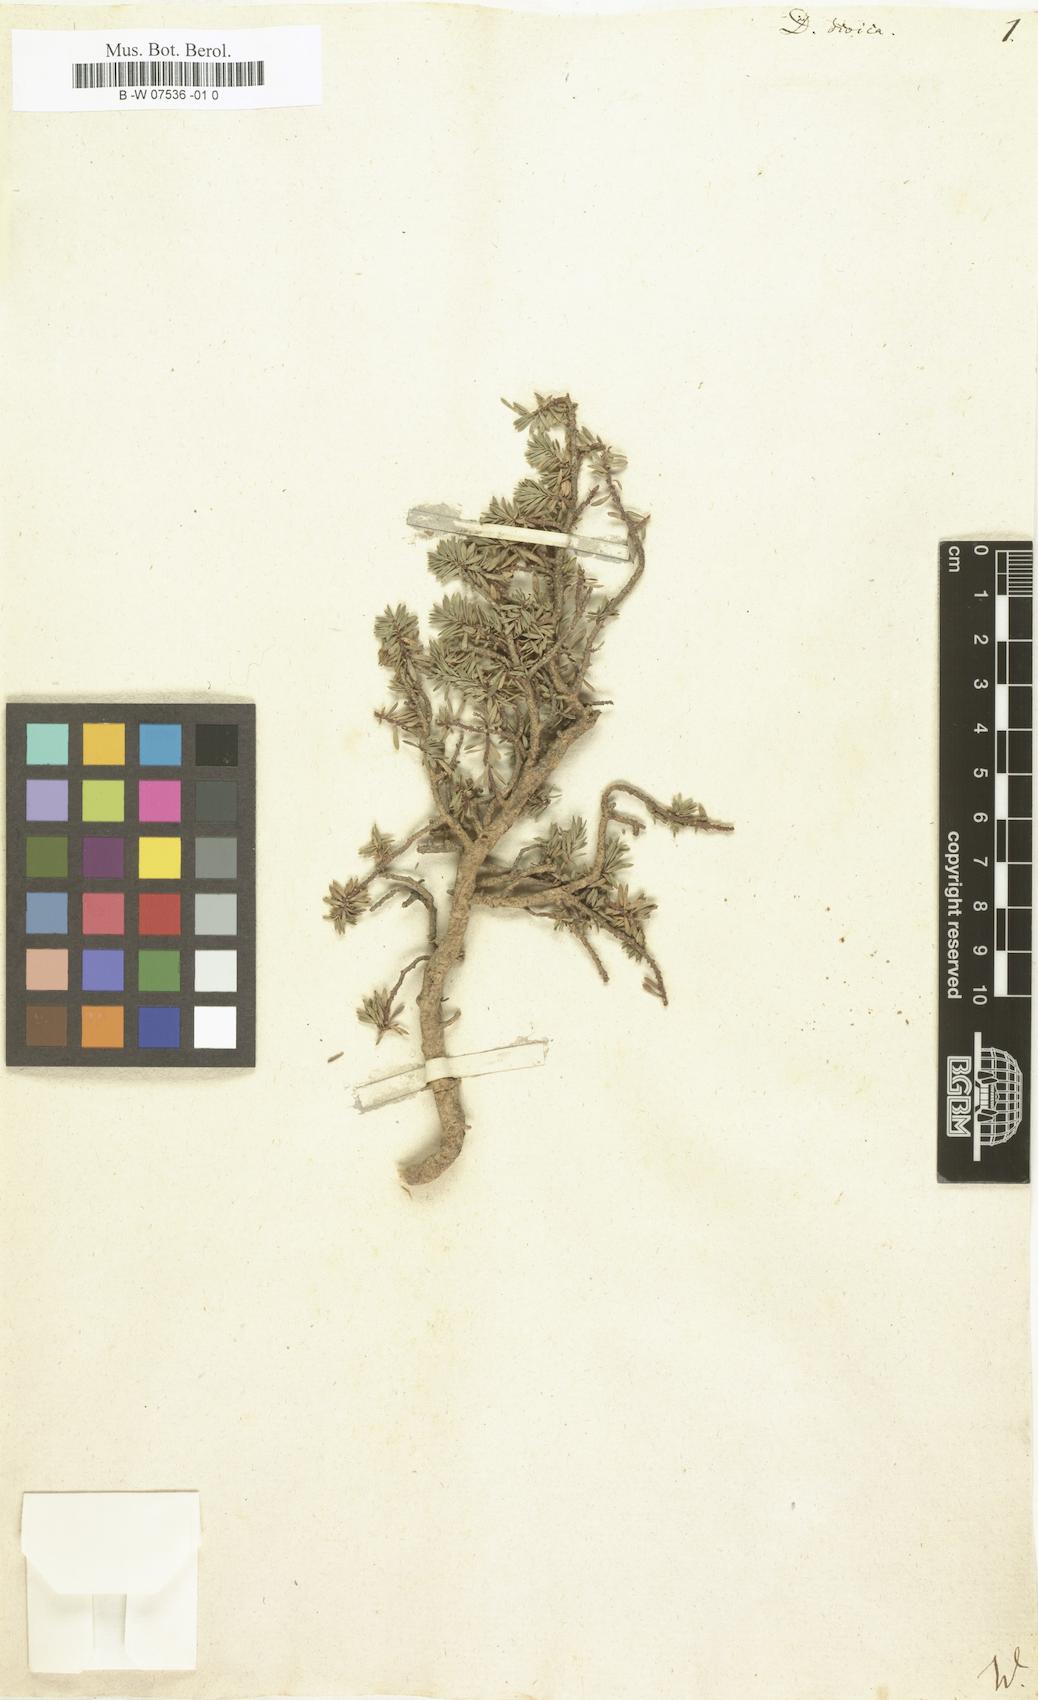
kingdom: Plantae
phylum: Tracheophyta
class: Magnoliopsida
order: Malvales
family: Thymelaeaceae
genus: Thymelaea
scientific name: Thymelaea dioica
